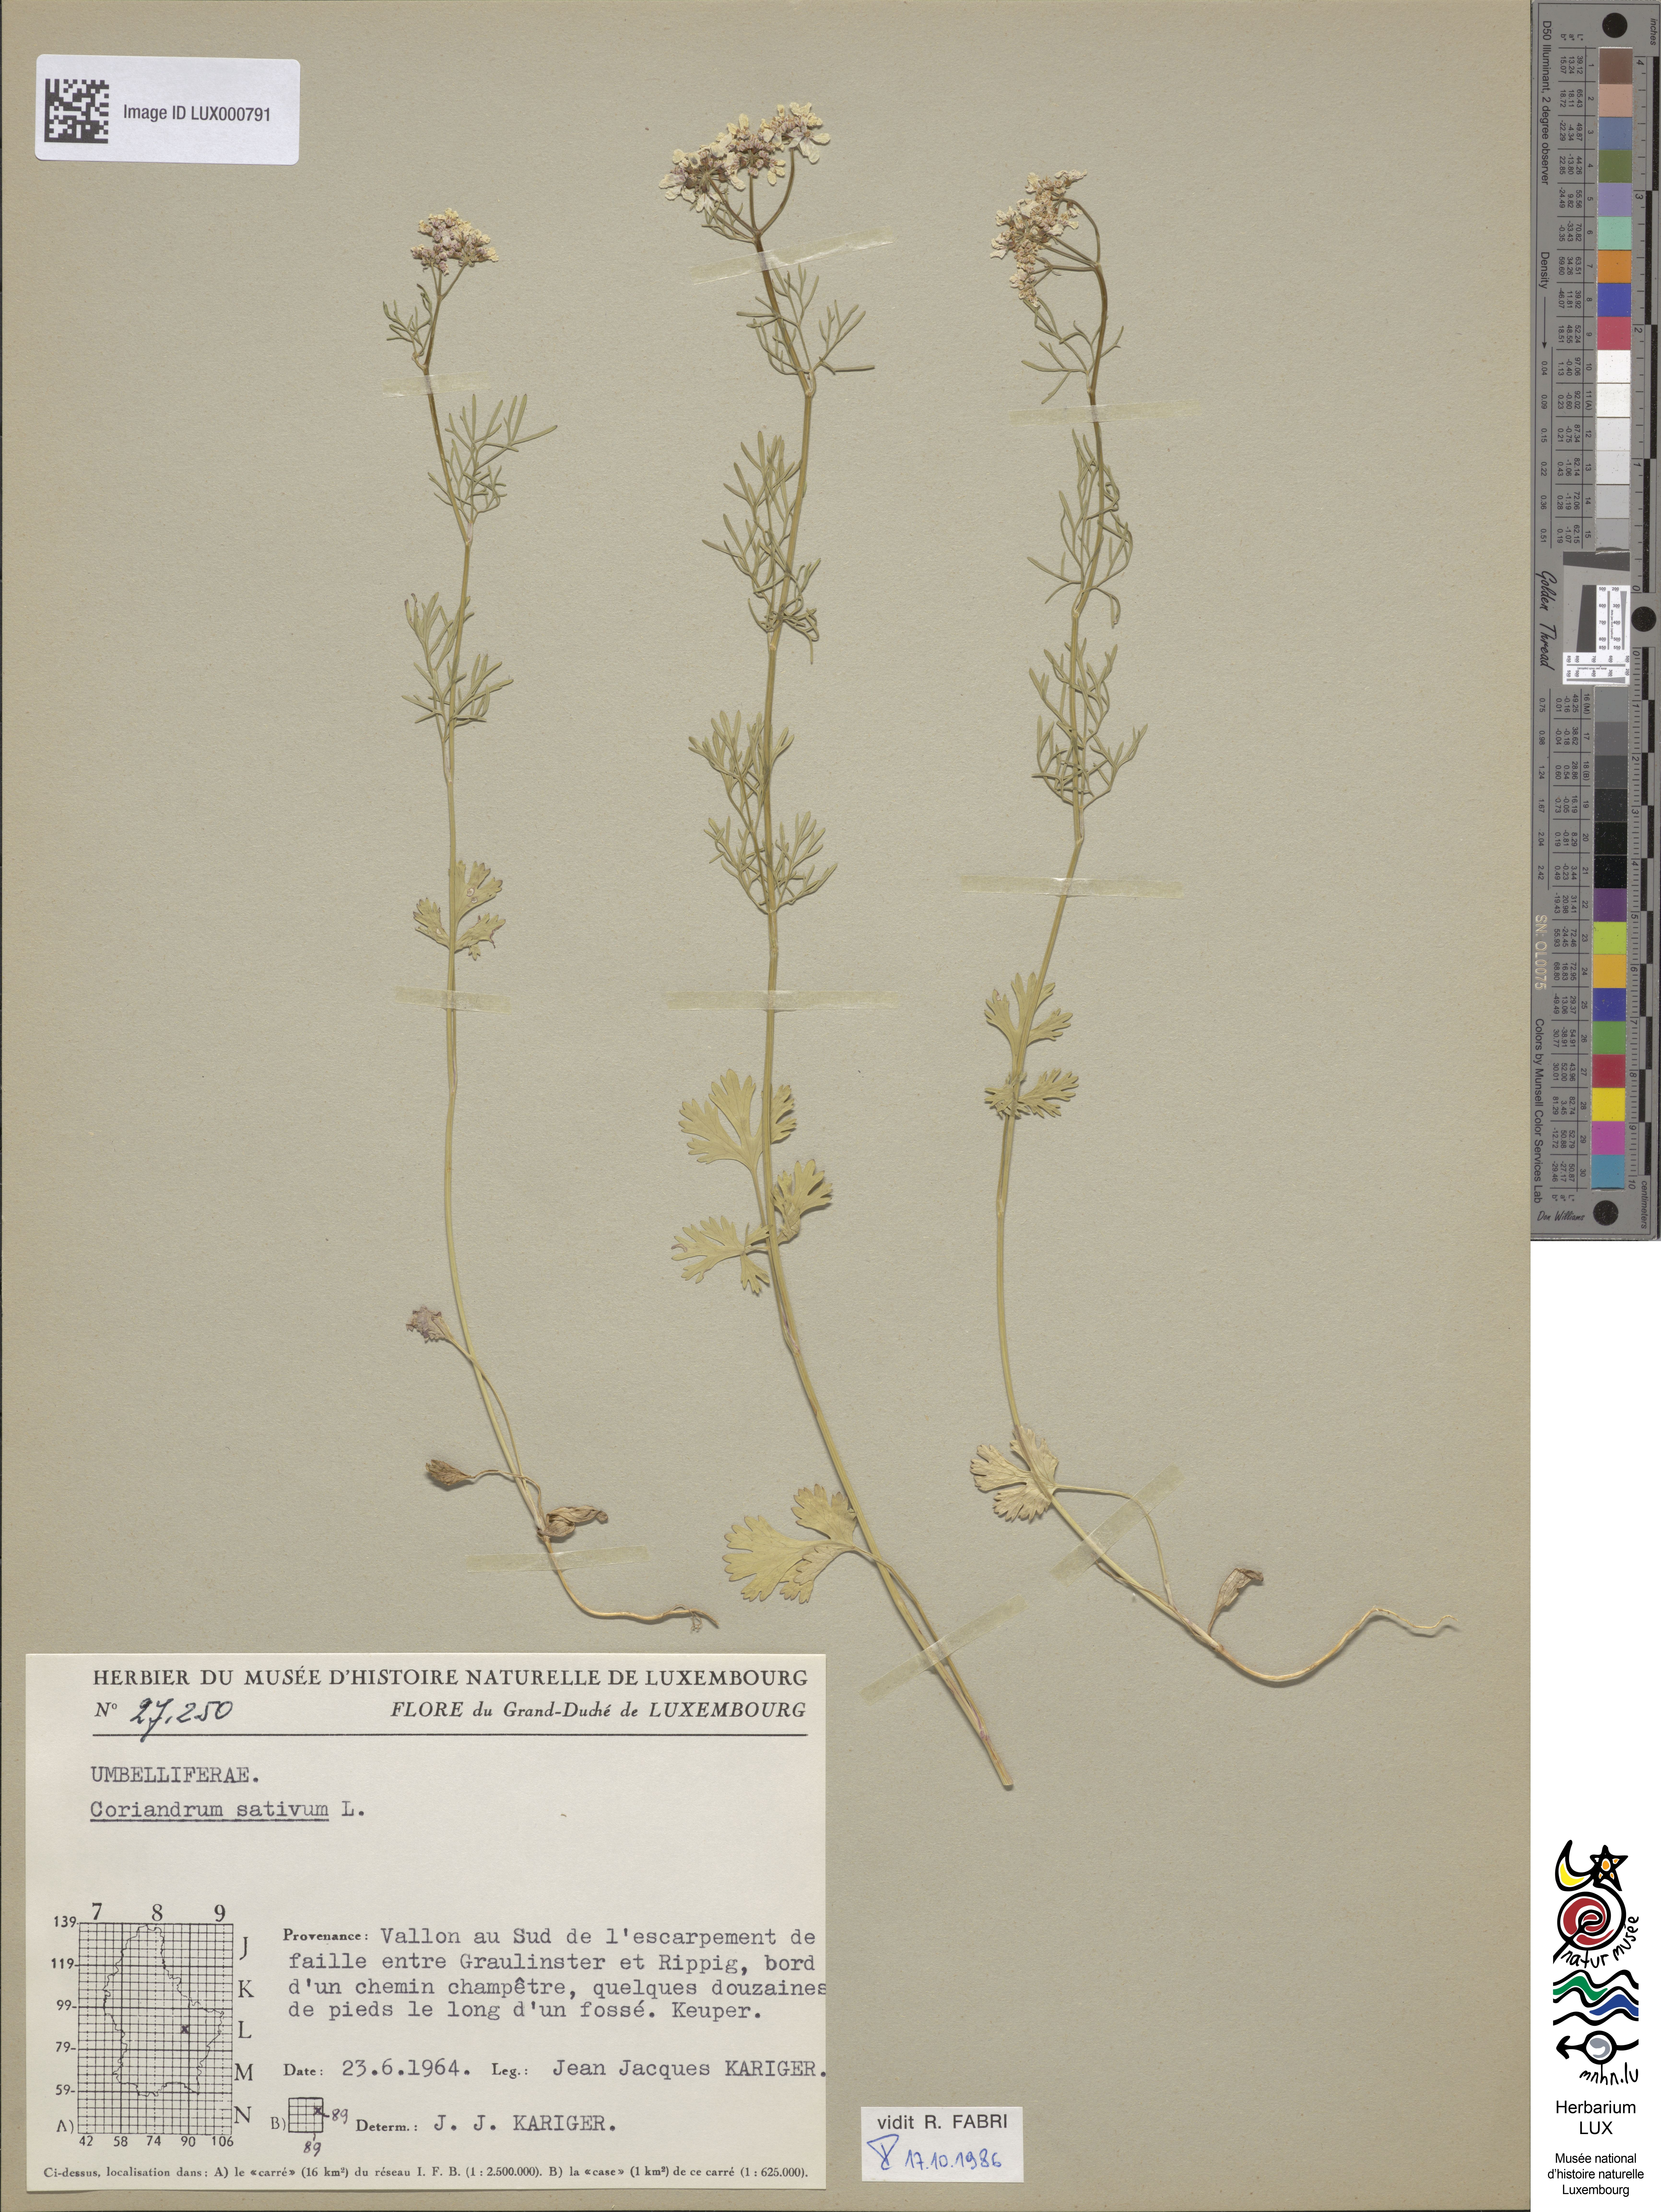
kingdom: Plantae
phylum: Tracheophyta
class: Magnoliopsida
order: Apiales
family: Apiaceae
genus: Coriandrum
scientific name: Coriandrum sativum
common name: Coriander
